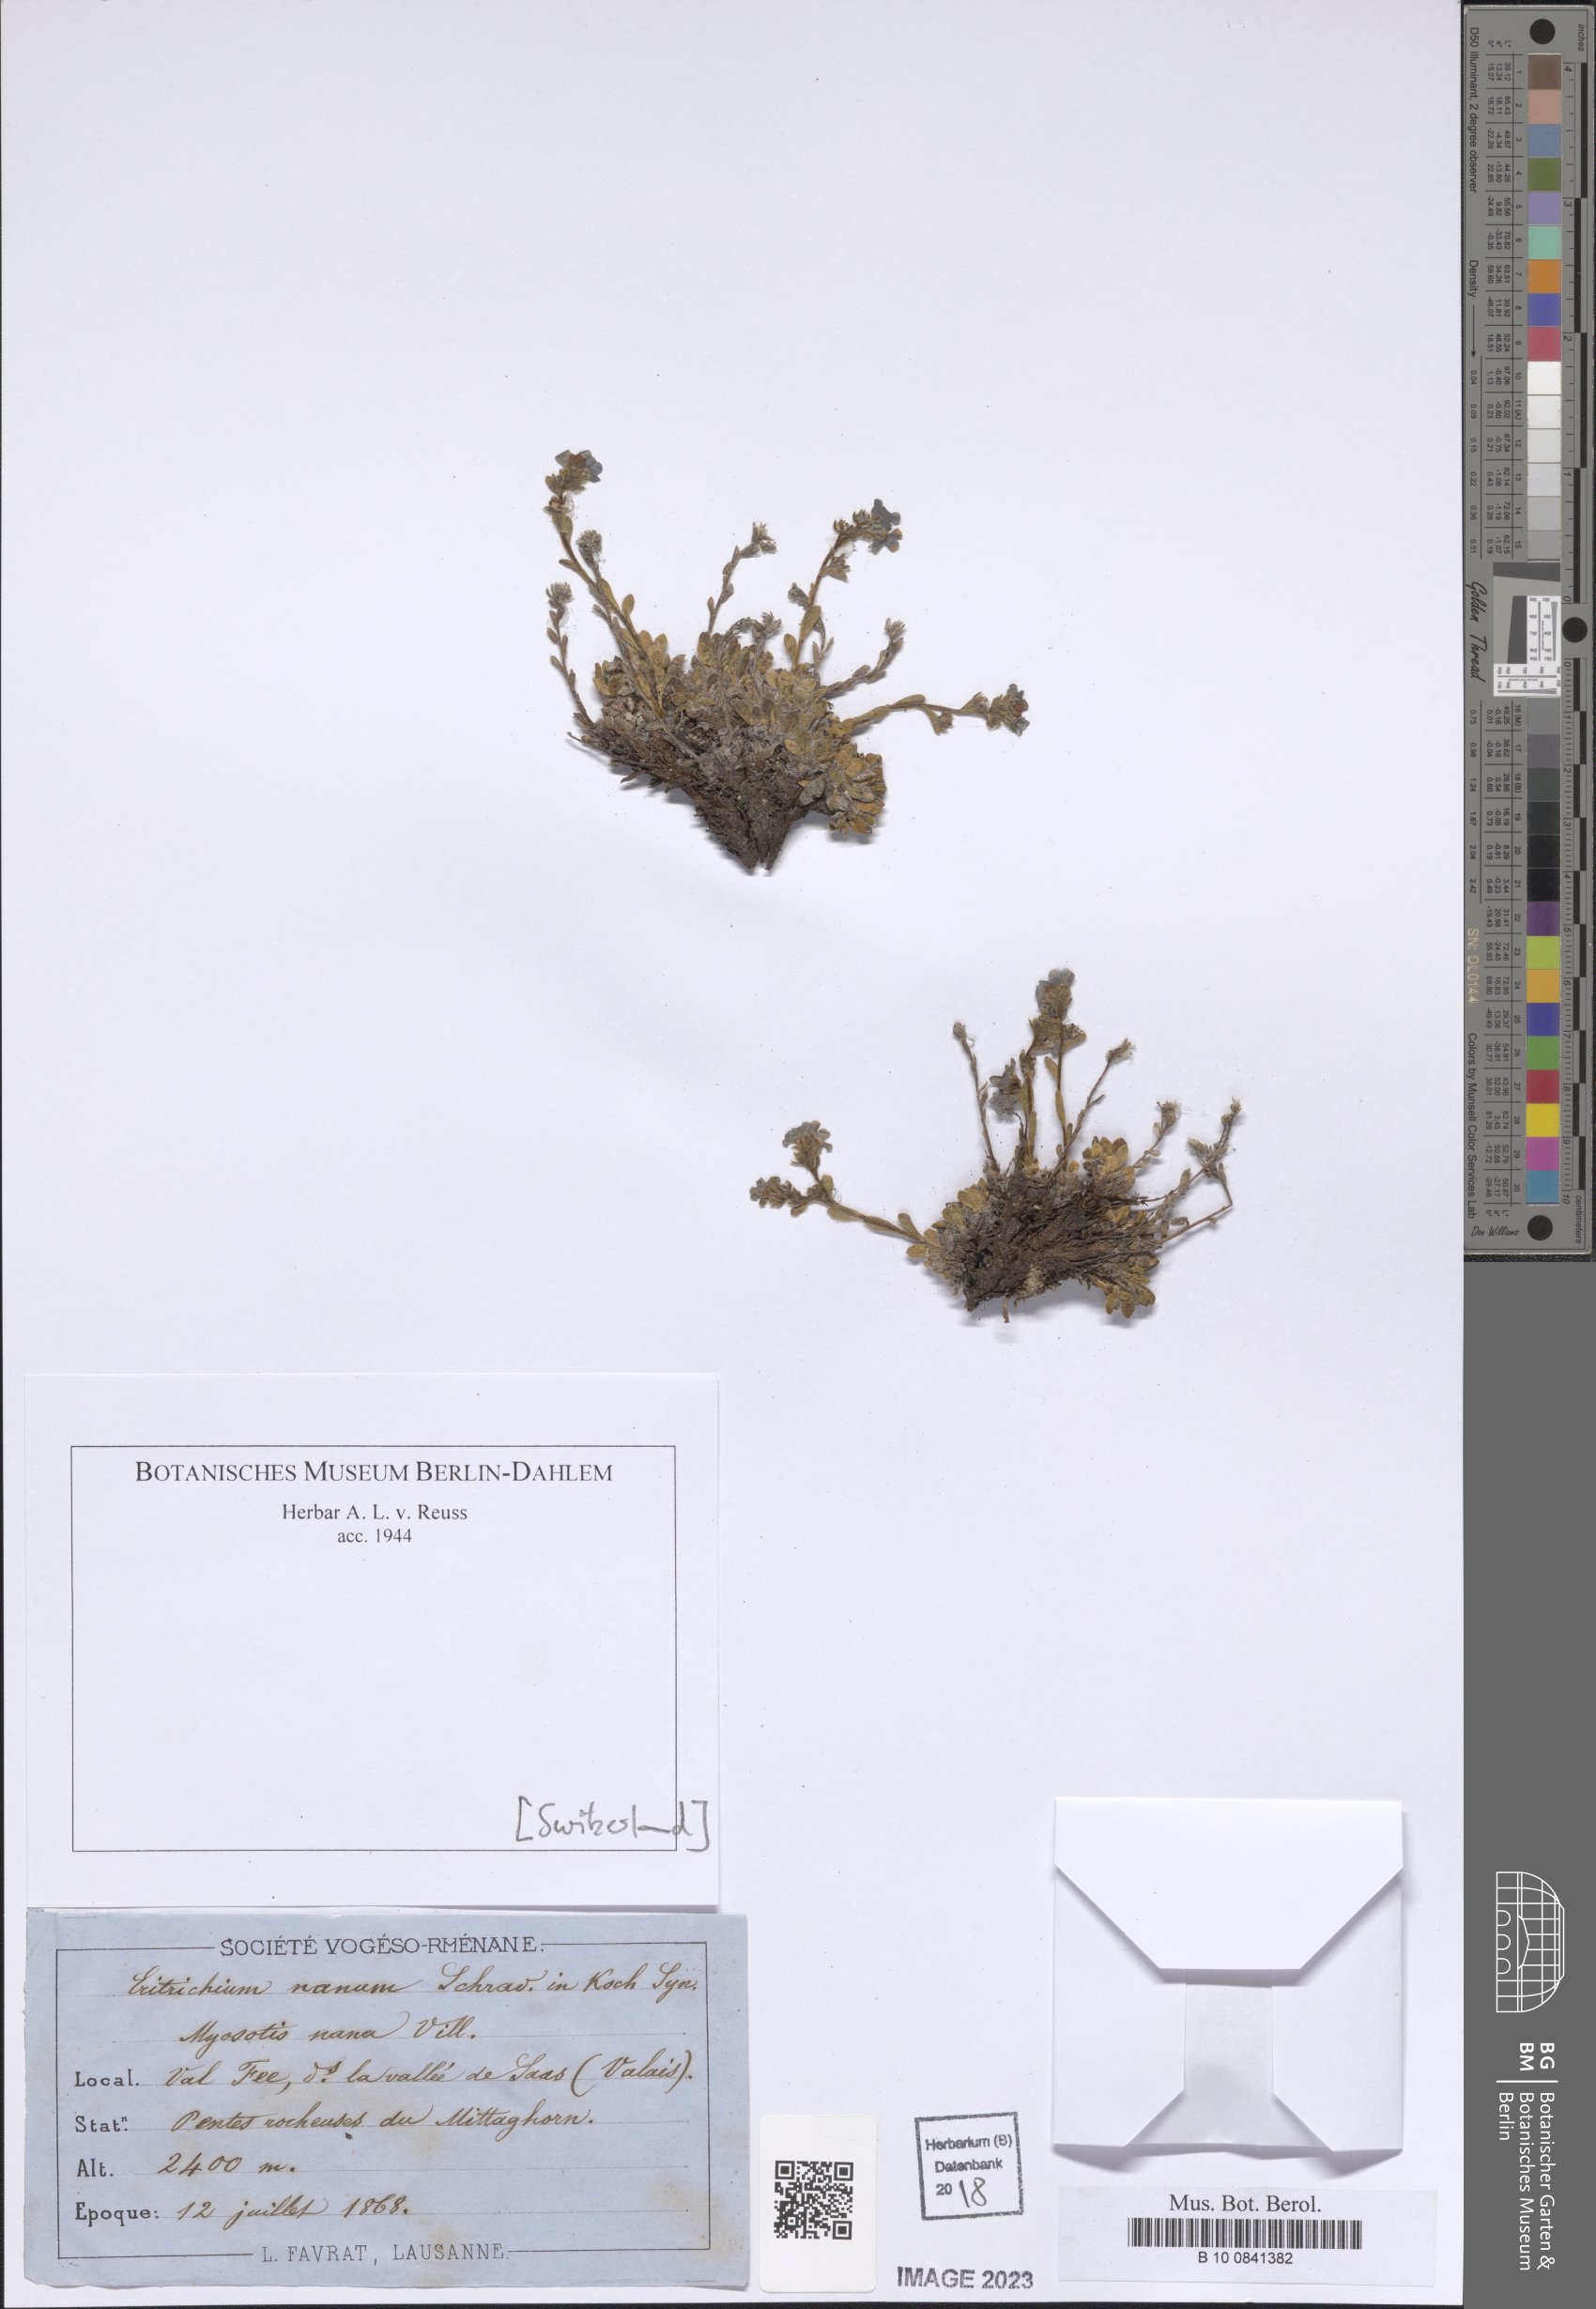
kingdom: Plantae
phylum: Tracheophyta
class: Magnoliopsida
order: Boraginales
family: Boraginaceae
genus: Eritrichium
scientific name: Eritrichium nanum
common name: King-of-the-alps
